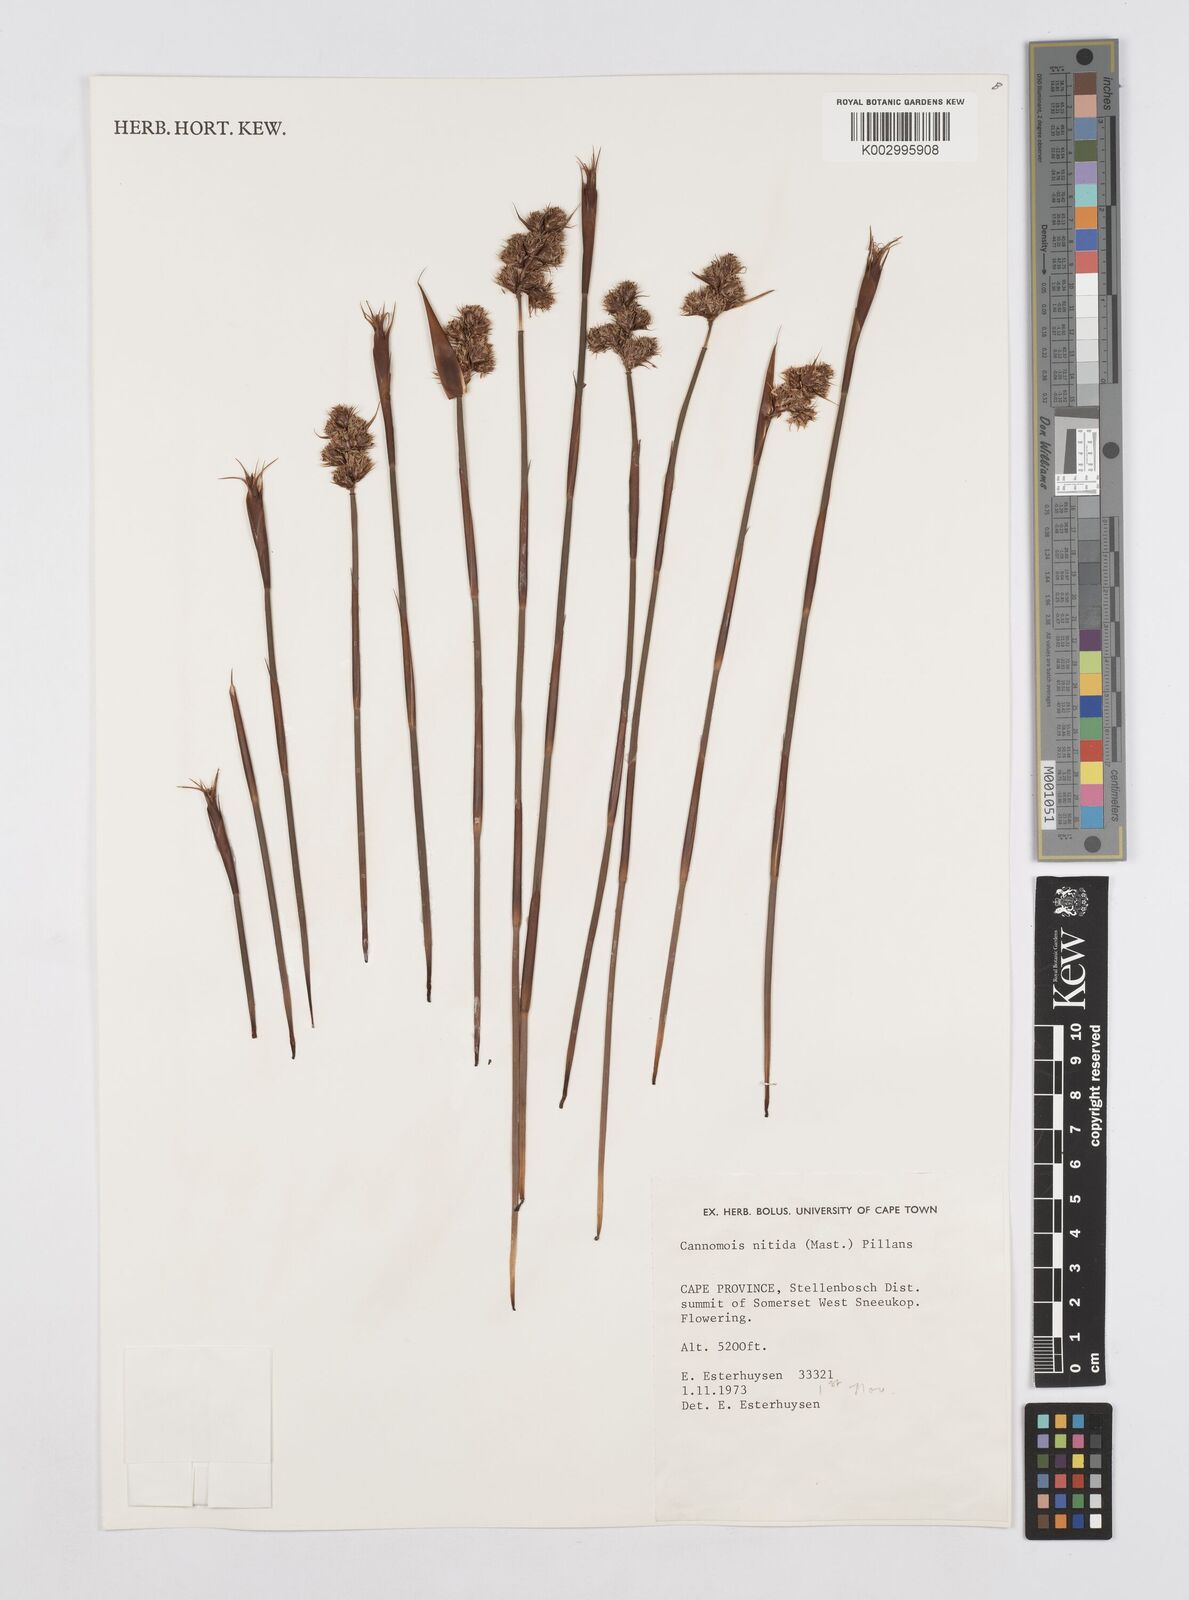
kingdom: Plantae
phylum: Tracheophyta
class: Liliopsida
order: Poales
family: Restionaceae
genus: Cannomois
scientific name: Cannomois nitida
